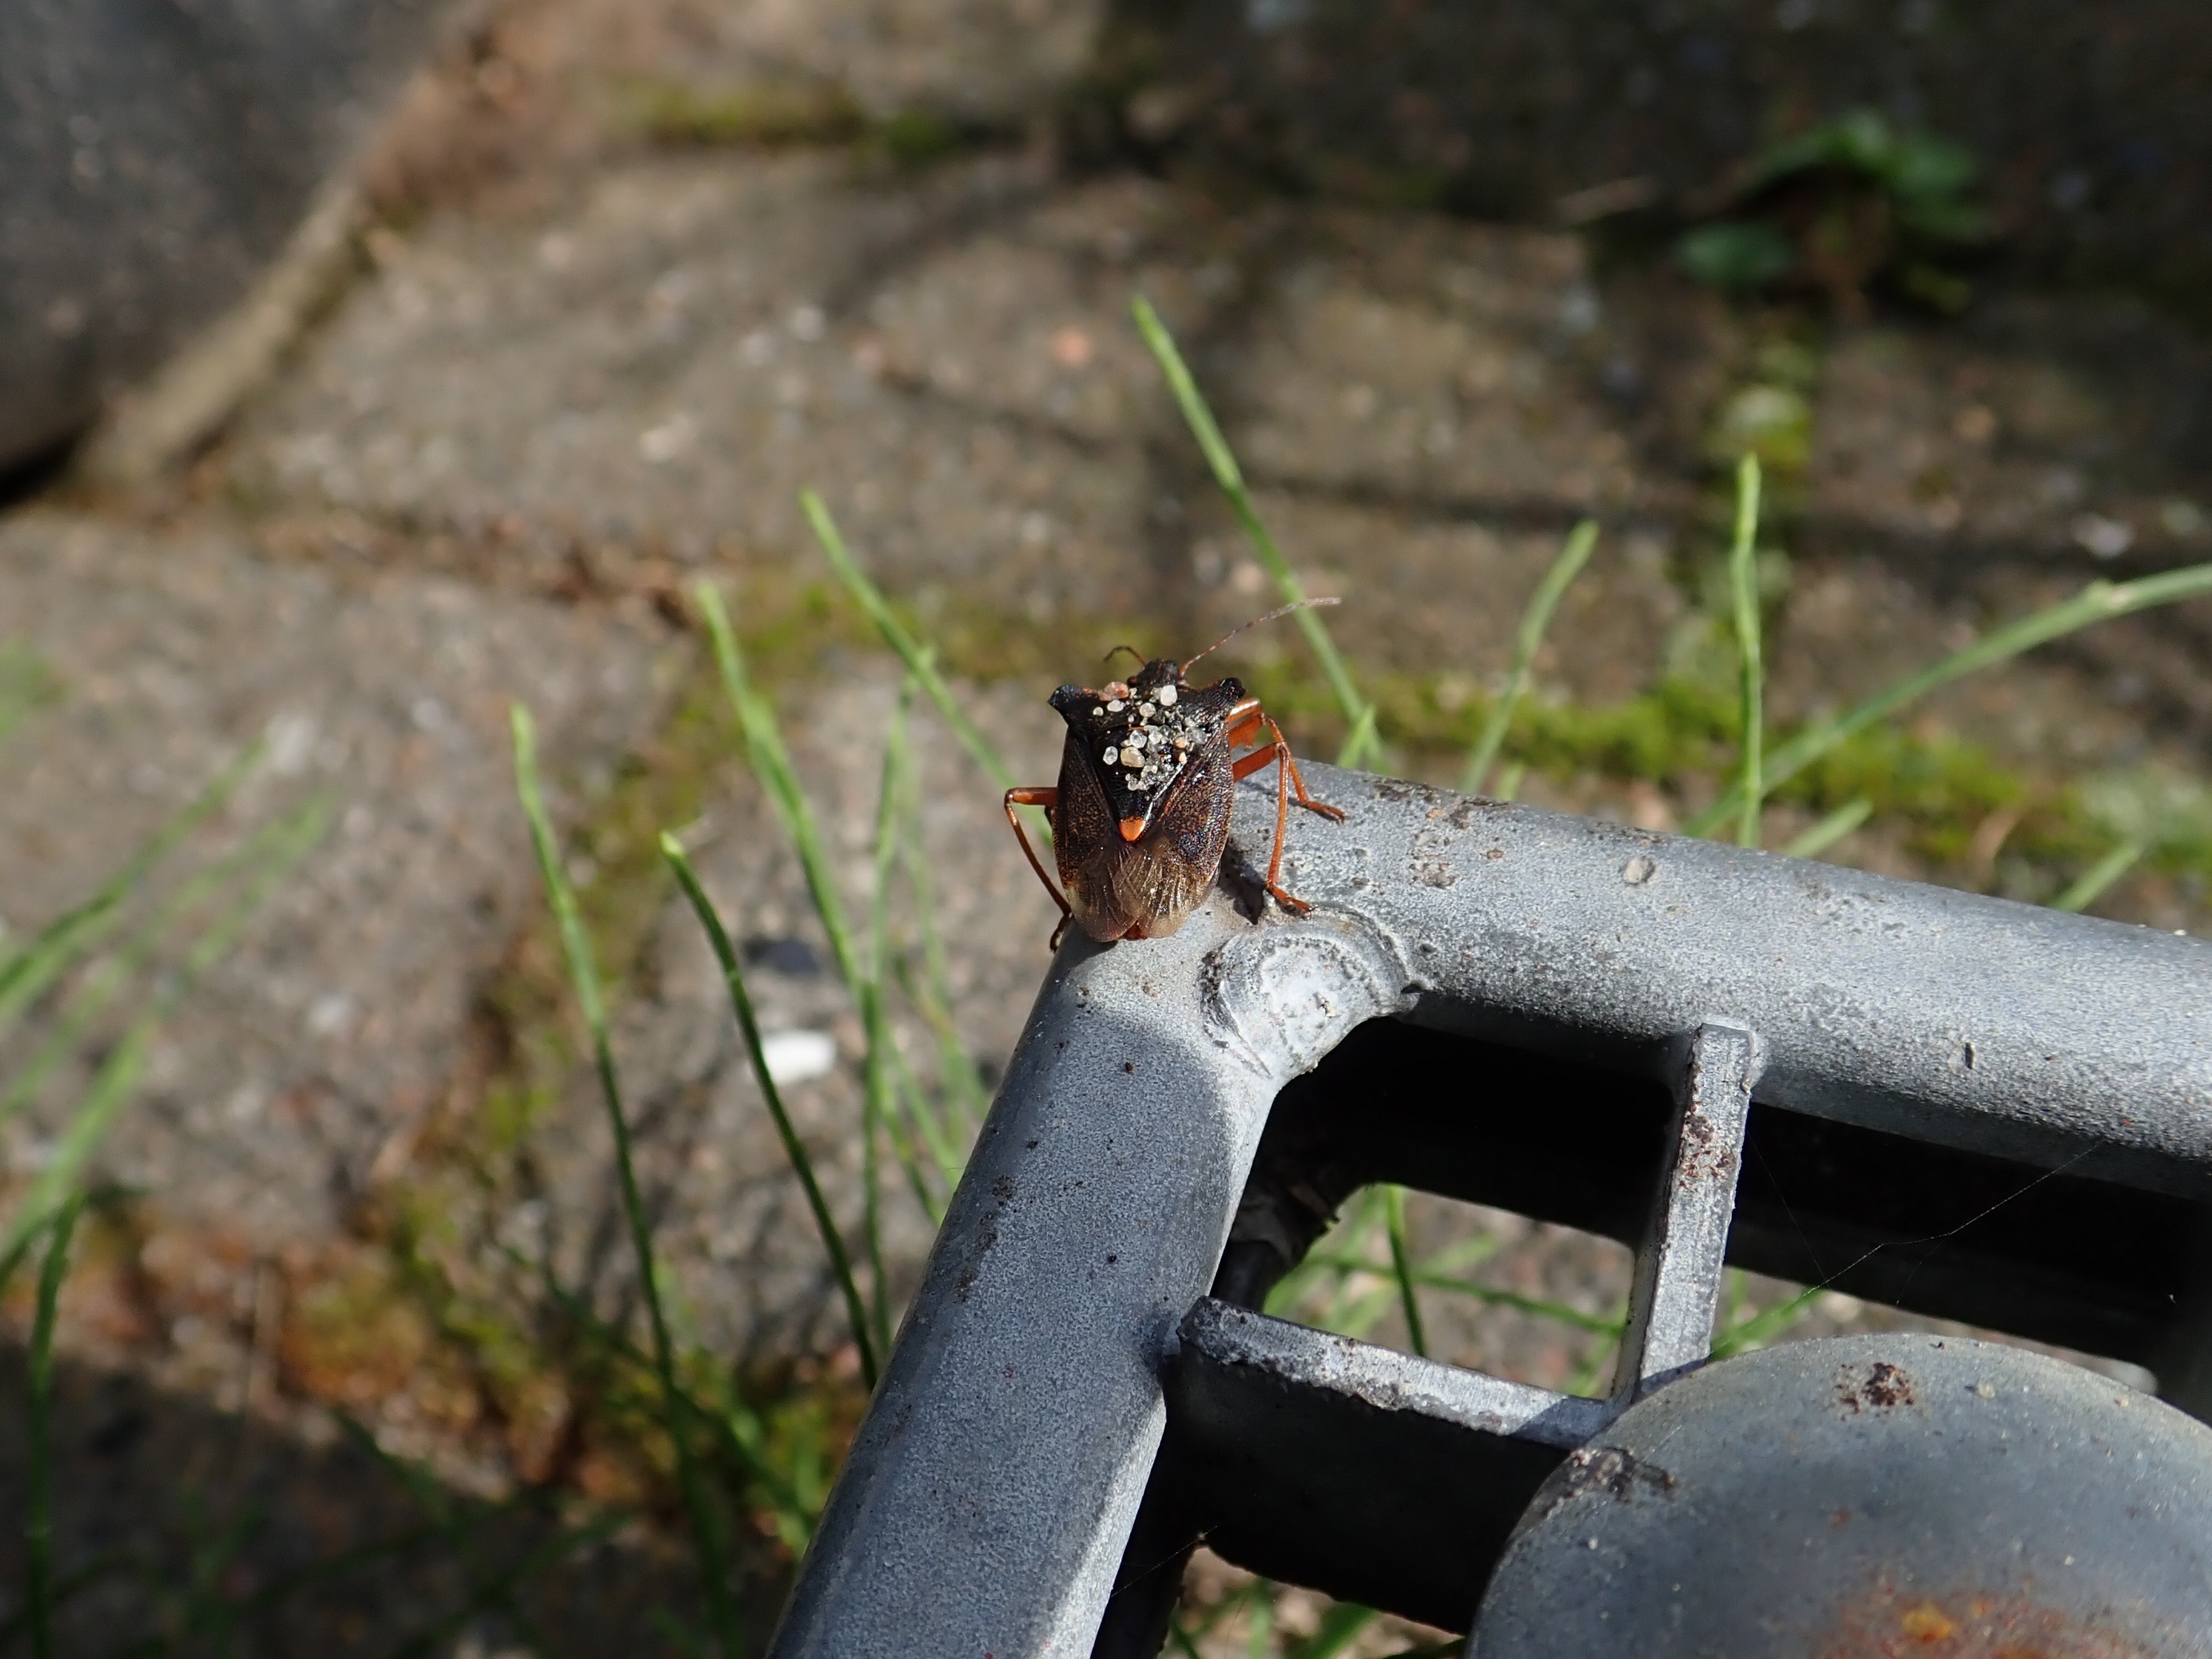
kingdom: Animalia
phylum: Arthropoda
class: Insecta
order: Hemiptera
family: Pentatomidae
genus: Pentatoma
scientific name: Pentatoma rufipes
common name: Rødbenet bredtæge
